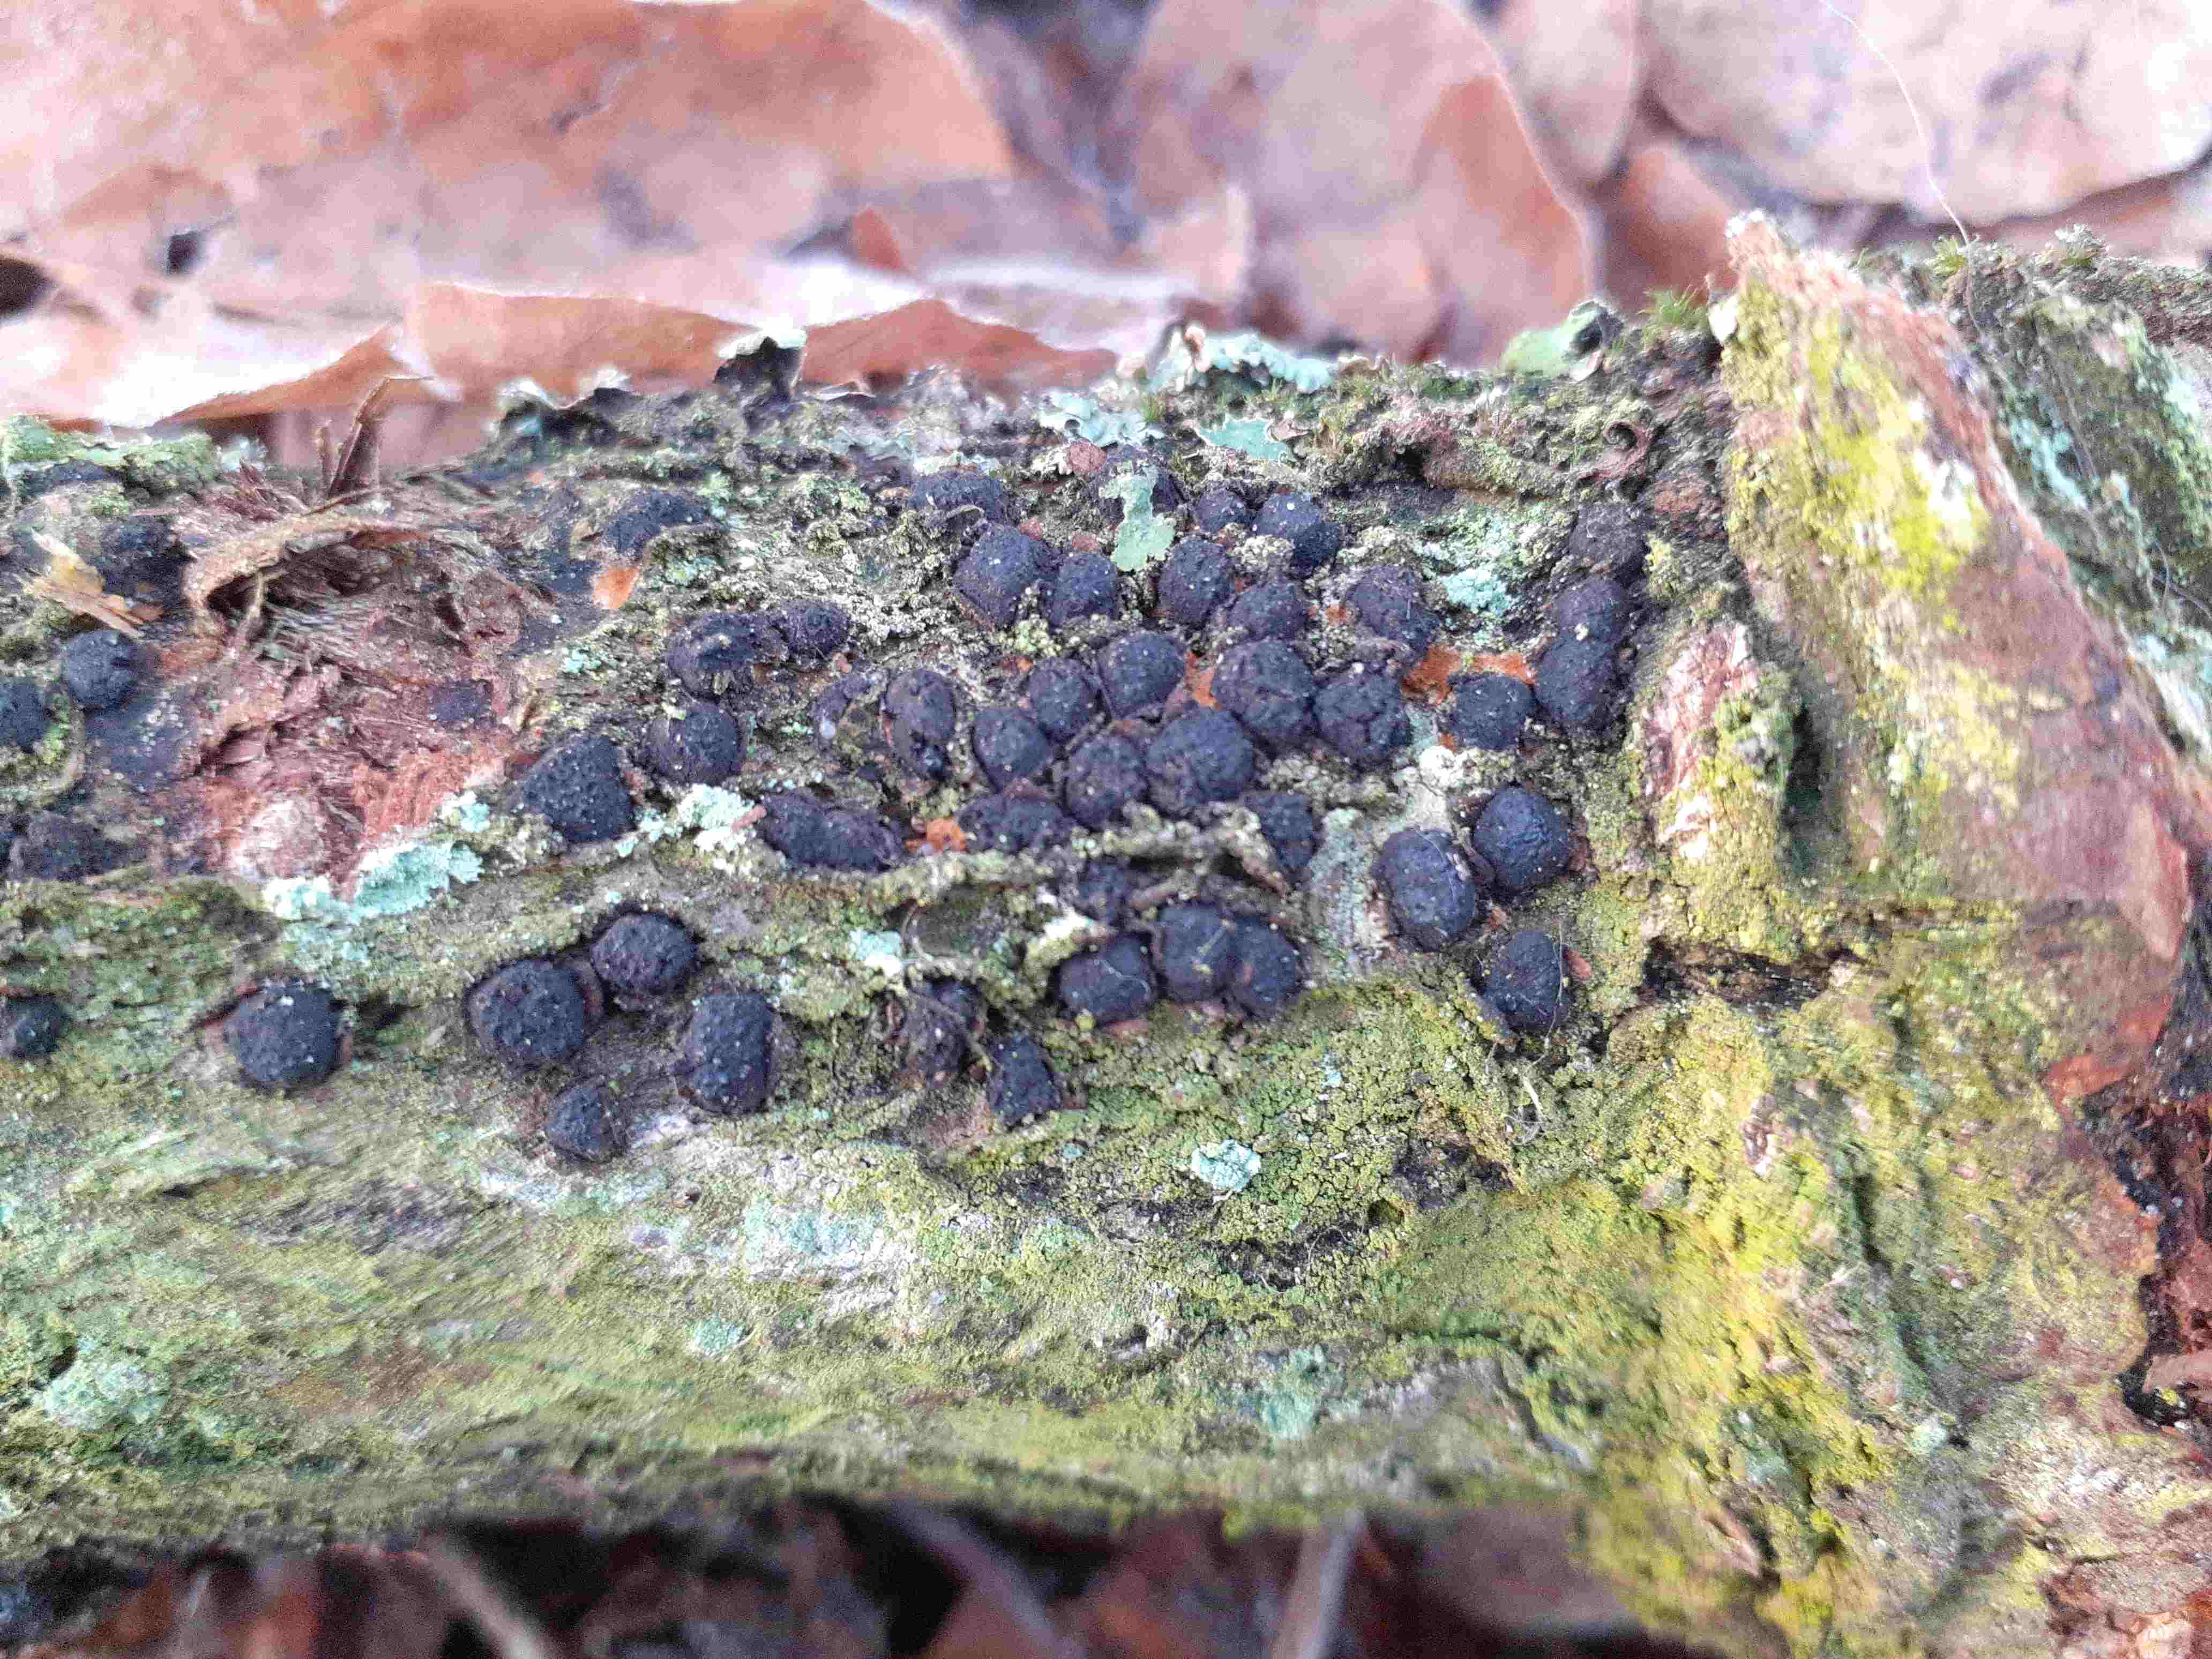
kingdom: Fungi
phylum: Ascomycota
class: Sordariomycetes
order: Xylariales
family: Diatrypaceae
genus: Diatrypella
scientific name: Diatrypella quercina
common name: ege-kulskorpe
